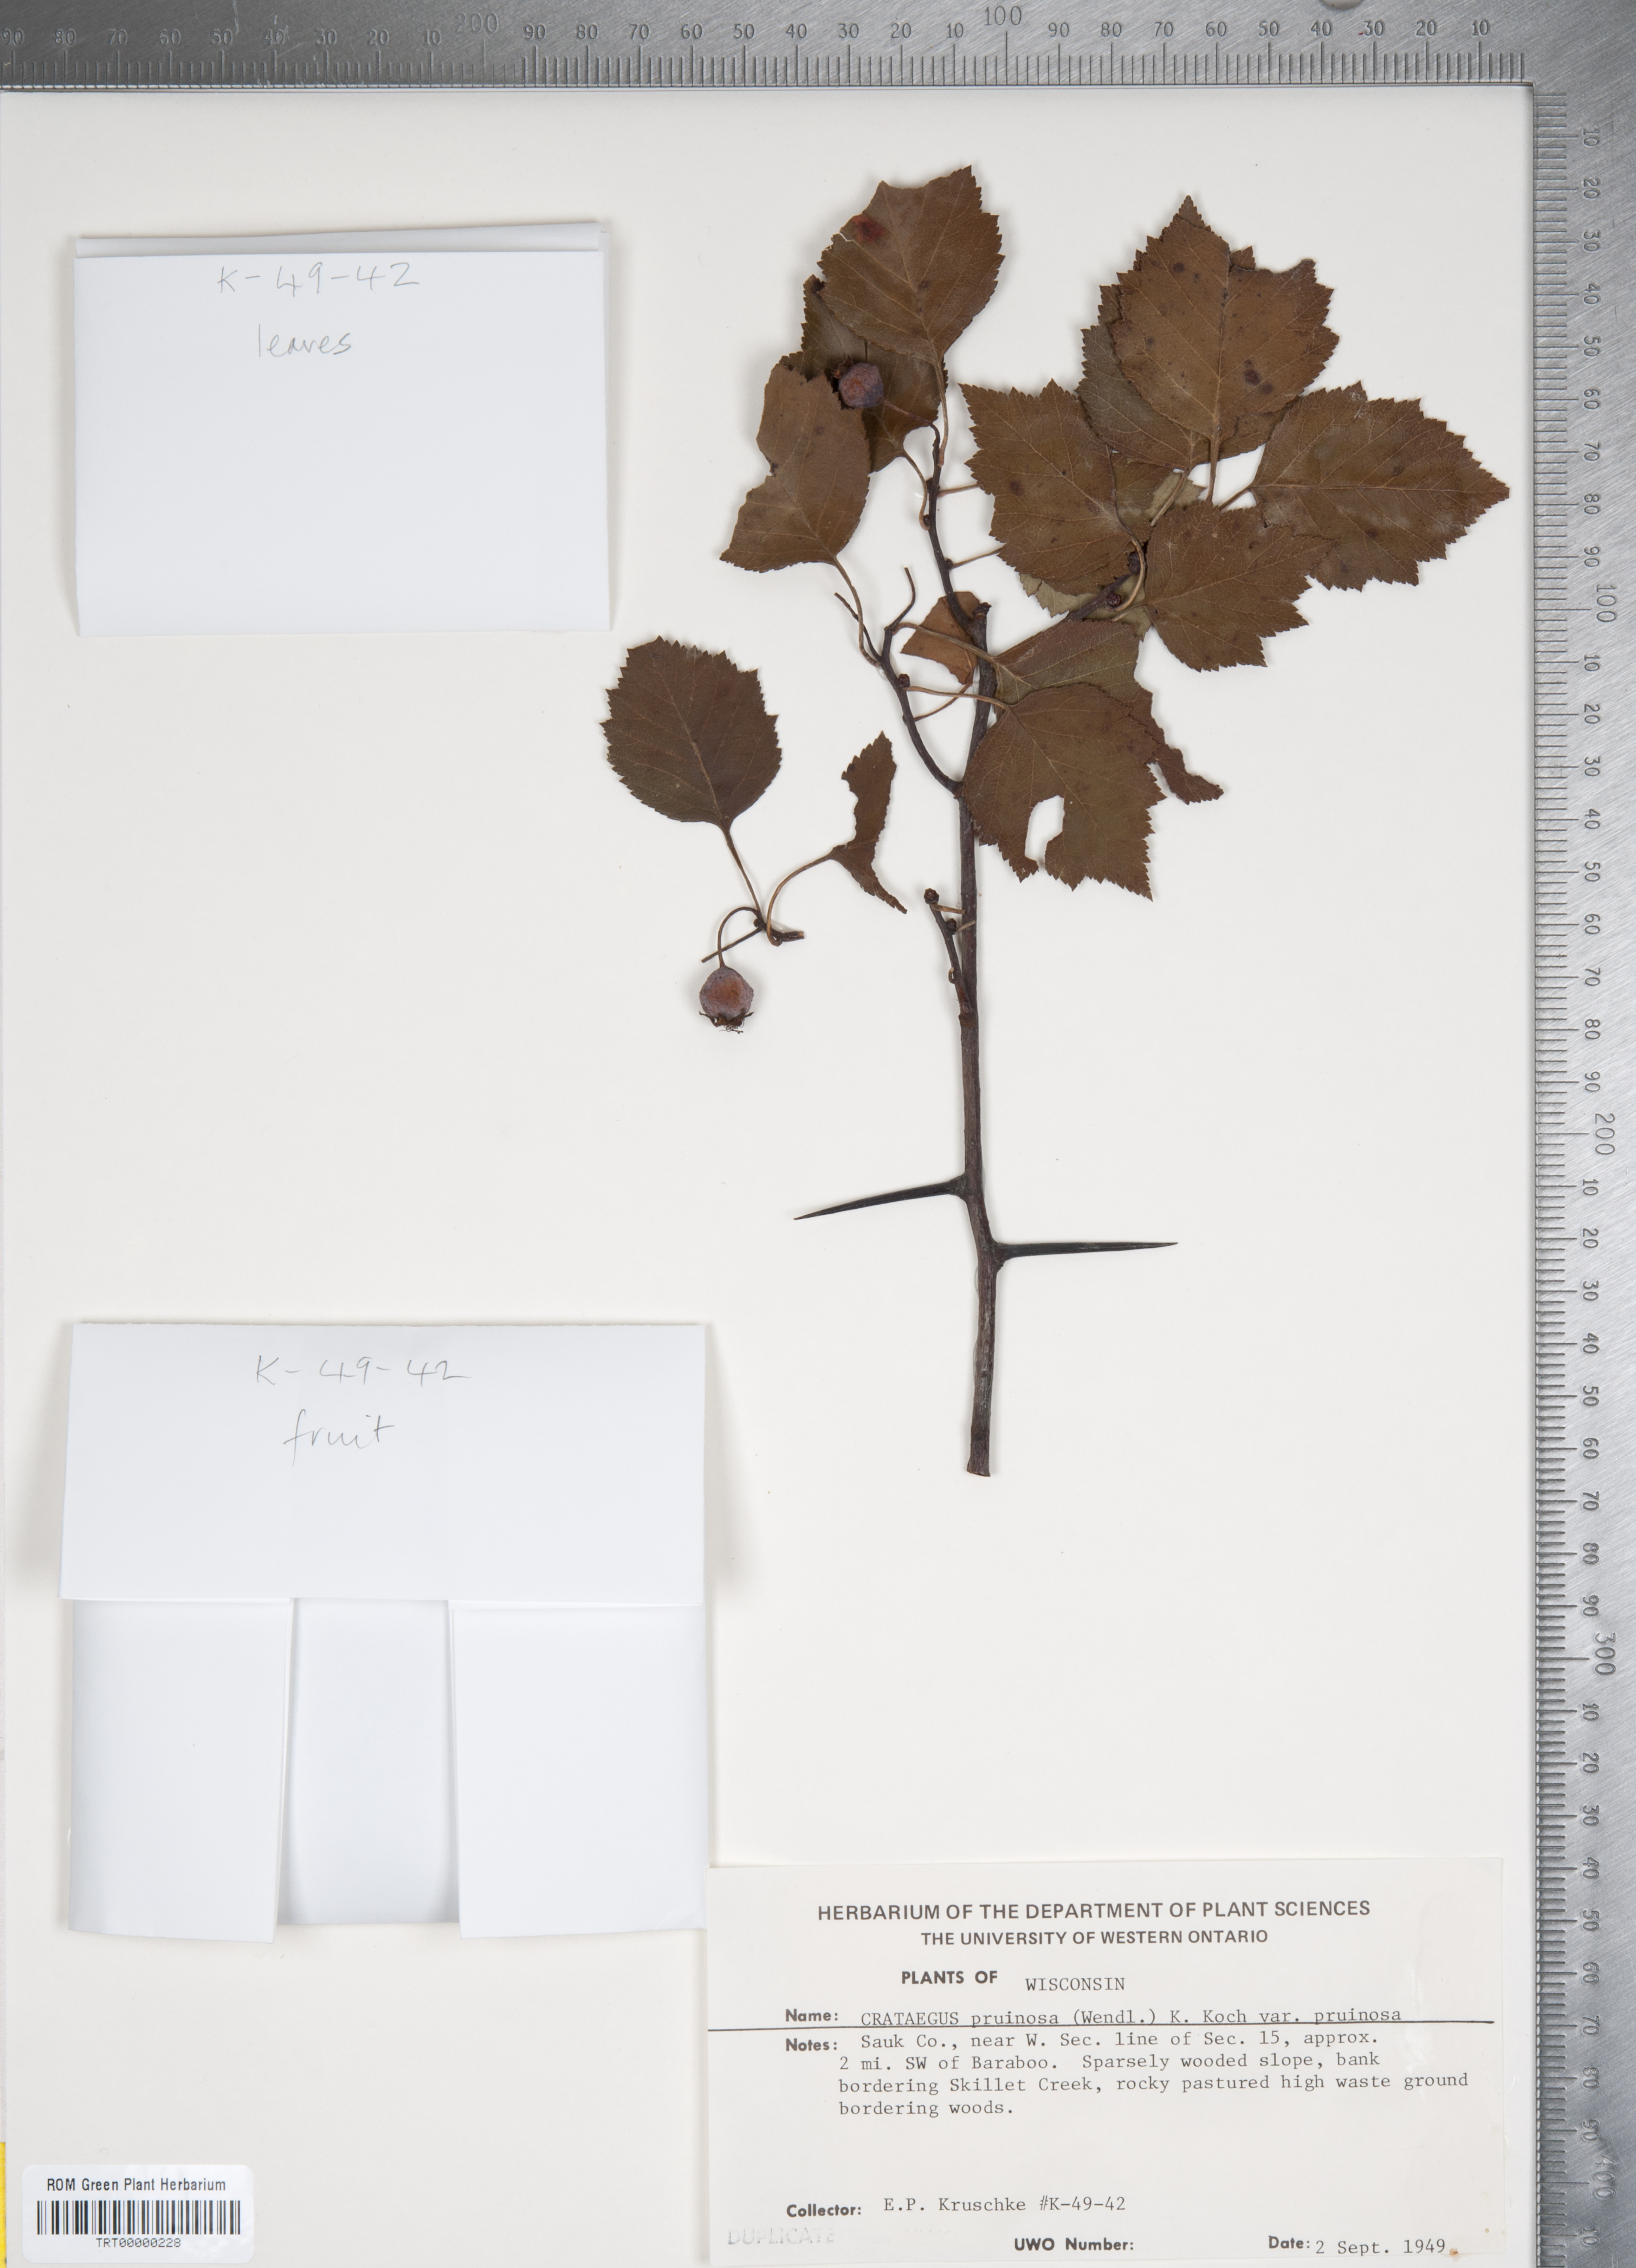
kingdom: Plantae
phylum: Tracheophyta
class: Magnoliopsida
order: Rosales
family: Rosaceae
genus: Crataegus
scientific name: Crataegus pruinosa
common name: Waxy-fruit hawthorn
